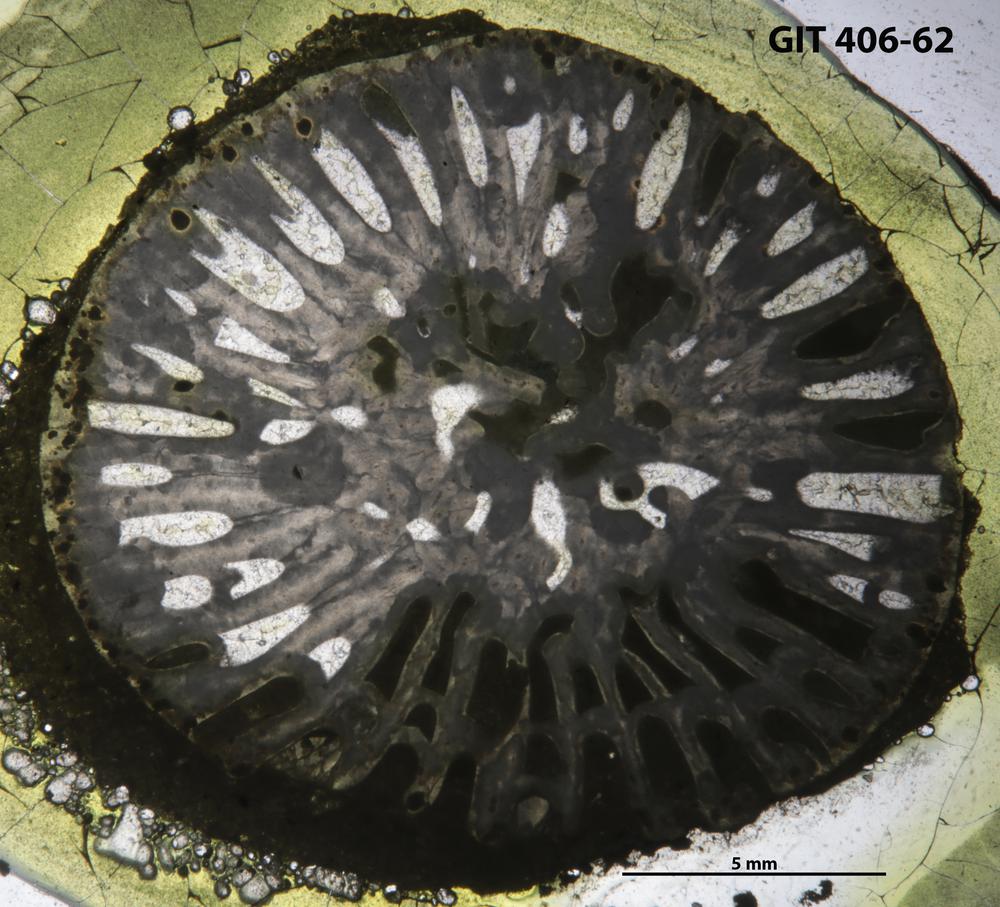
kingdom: Animalia
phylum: Cnidaria
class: Anthozoa
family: Streptelasmatidae
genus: Grewingkia
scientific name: Grewingkia
